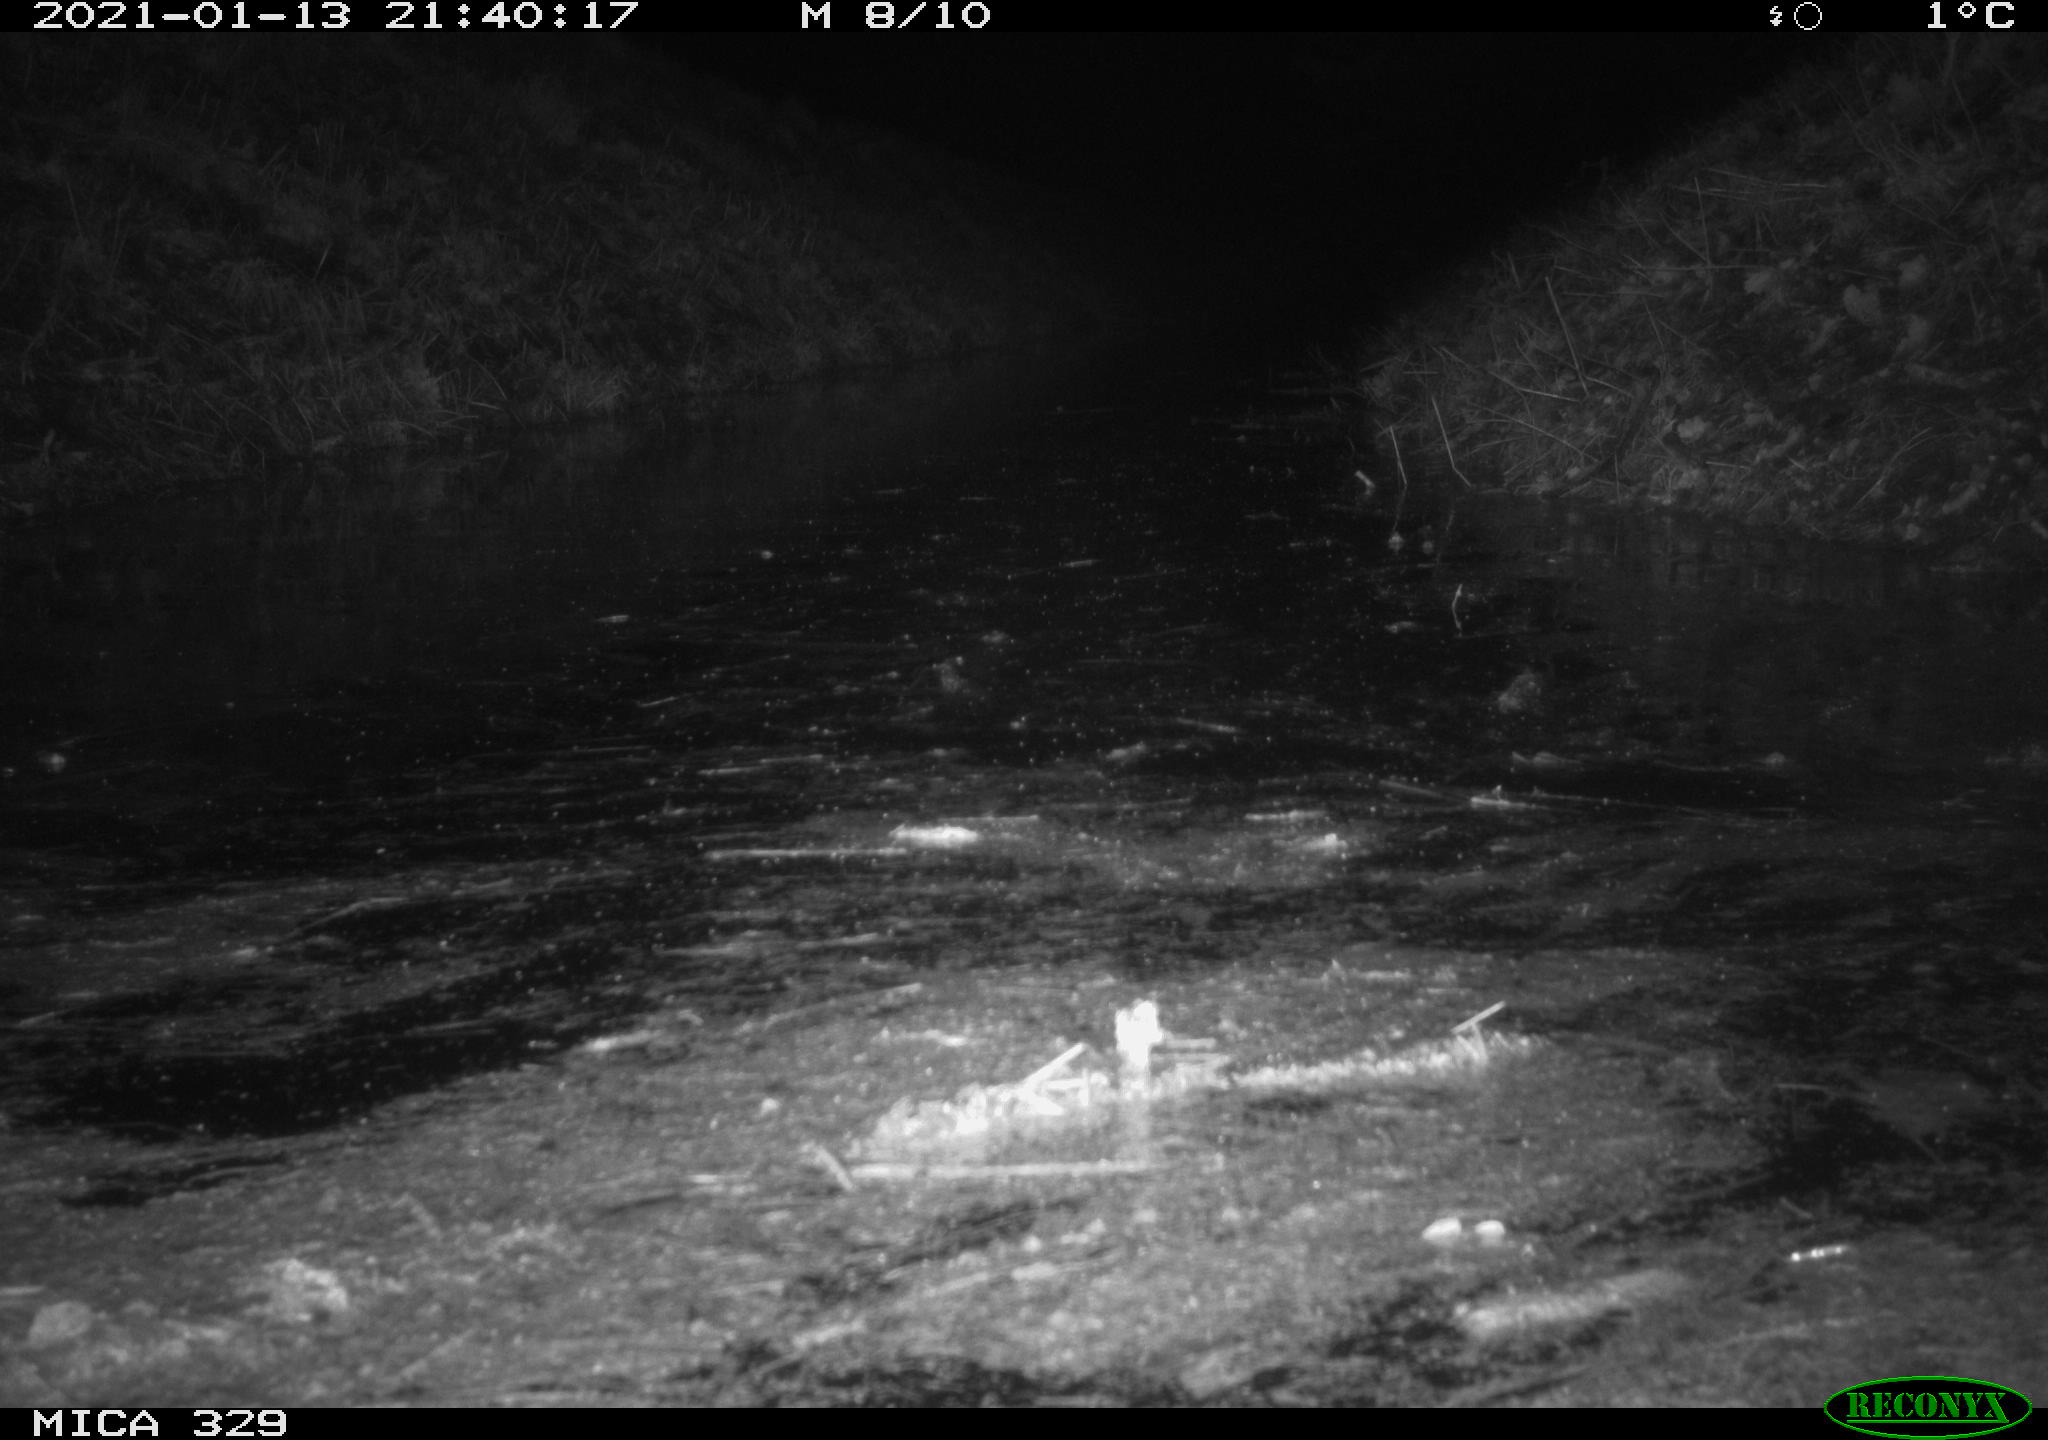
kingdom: Animalia
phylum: Chordata
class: Mammalia
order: Rodentia
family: Cricetidae
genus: Ondatra
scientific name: Ondatra zibethicus
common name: Muskrat
